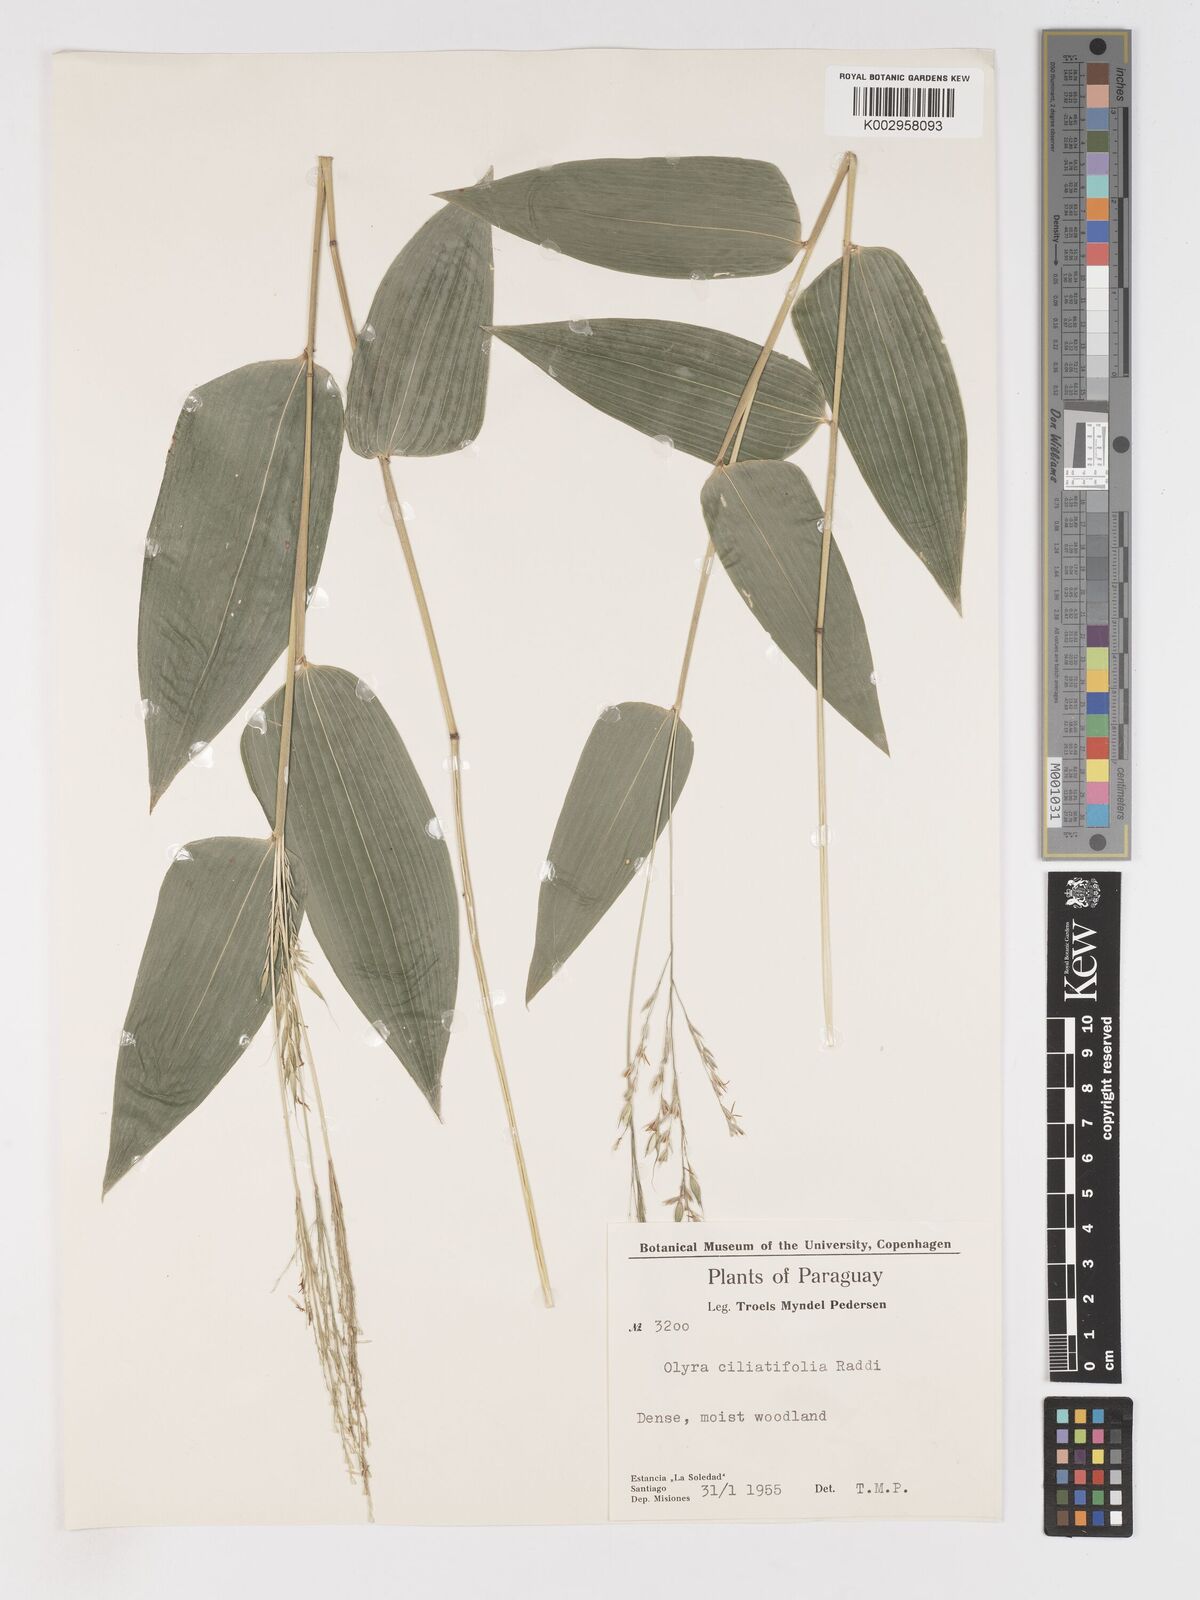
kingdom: Plantae
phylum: Tracheophyta
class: Liliopsida
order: Poales
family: Poaceae
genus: Olyra
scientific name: Olyra ciliatifolia
